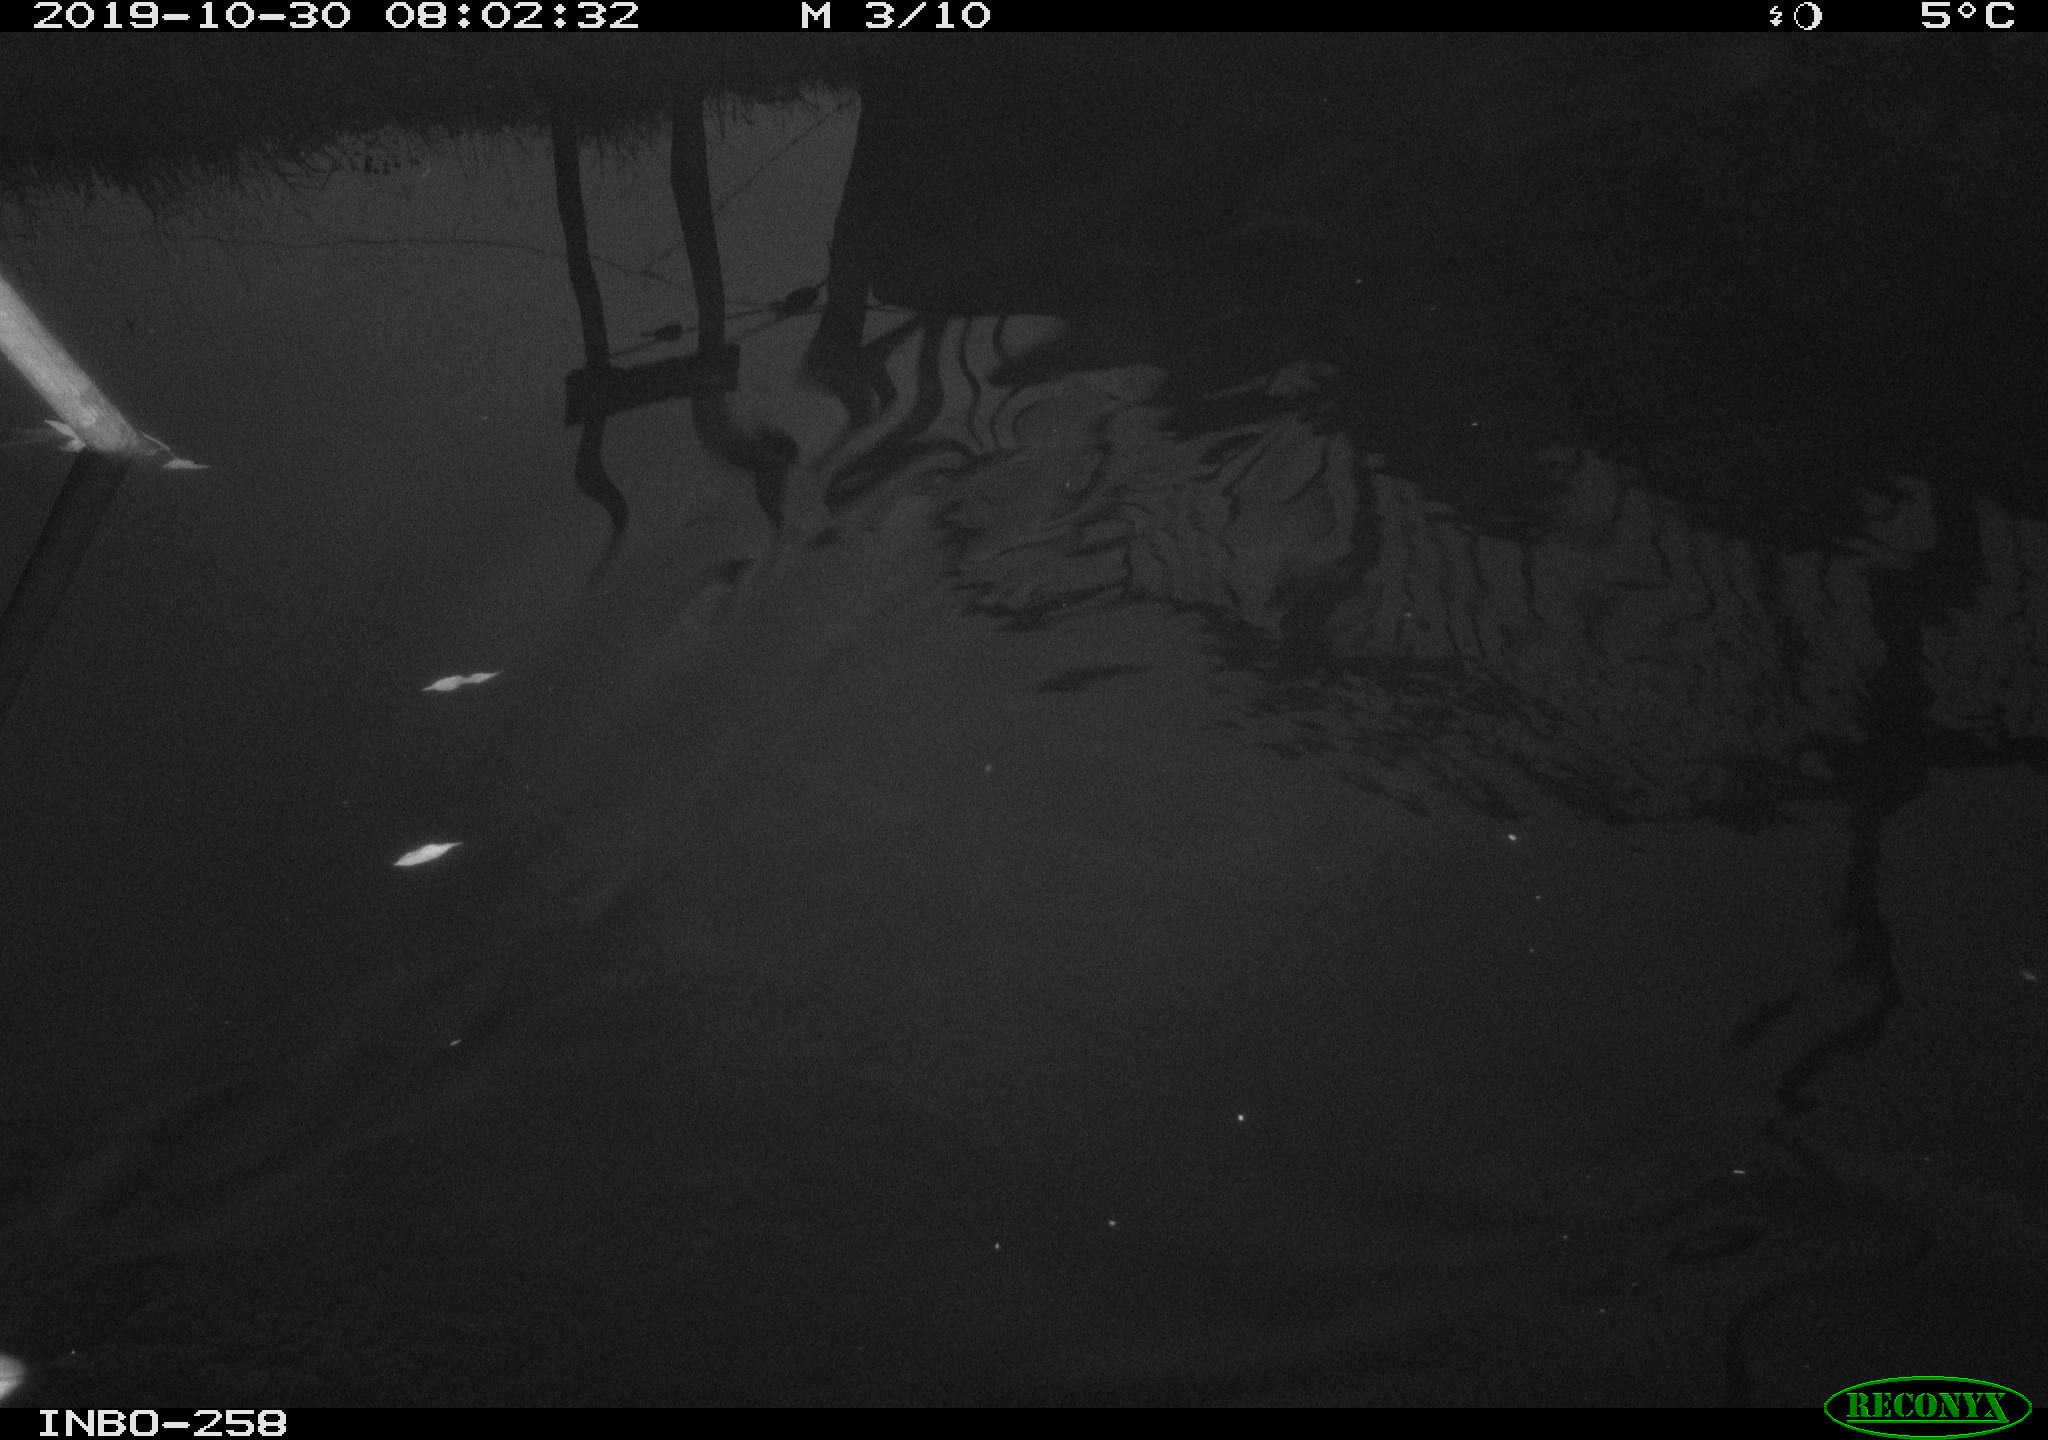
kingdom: Animalia
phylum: Chordata
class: Aves
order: Anseriformes
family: Anatidae
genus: Anas
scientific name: Anas platyrhynchos
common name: Mallard
